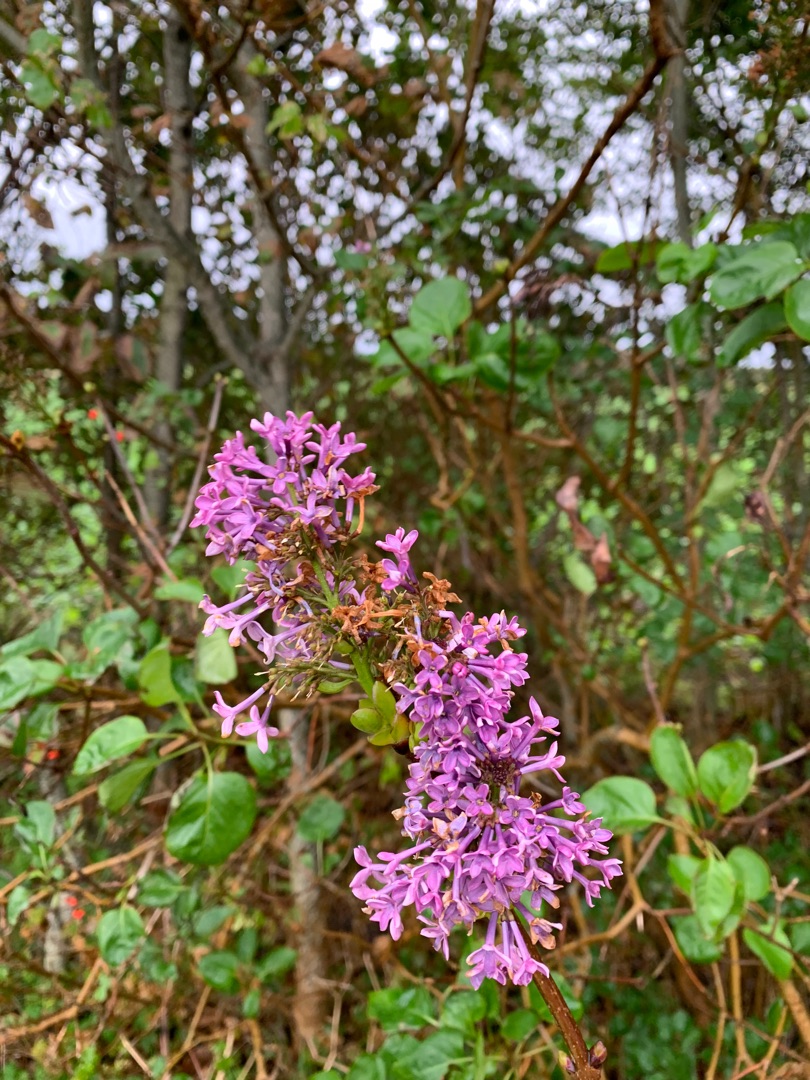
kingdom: Plantae
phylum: Tracheophyta
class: Magnoliopsida
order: Lamiales
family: Oleaceae
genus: Syringa
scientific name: Syringa vulgaris
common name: Syren
